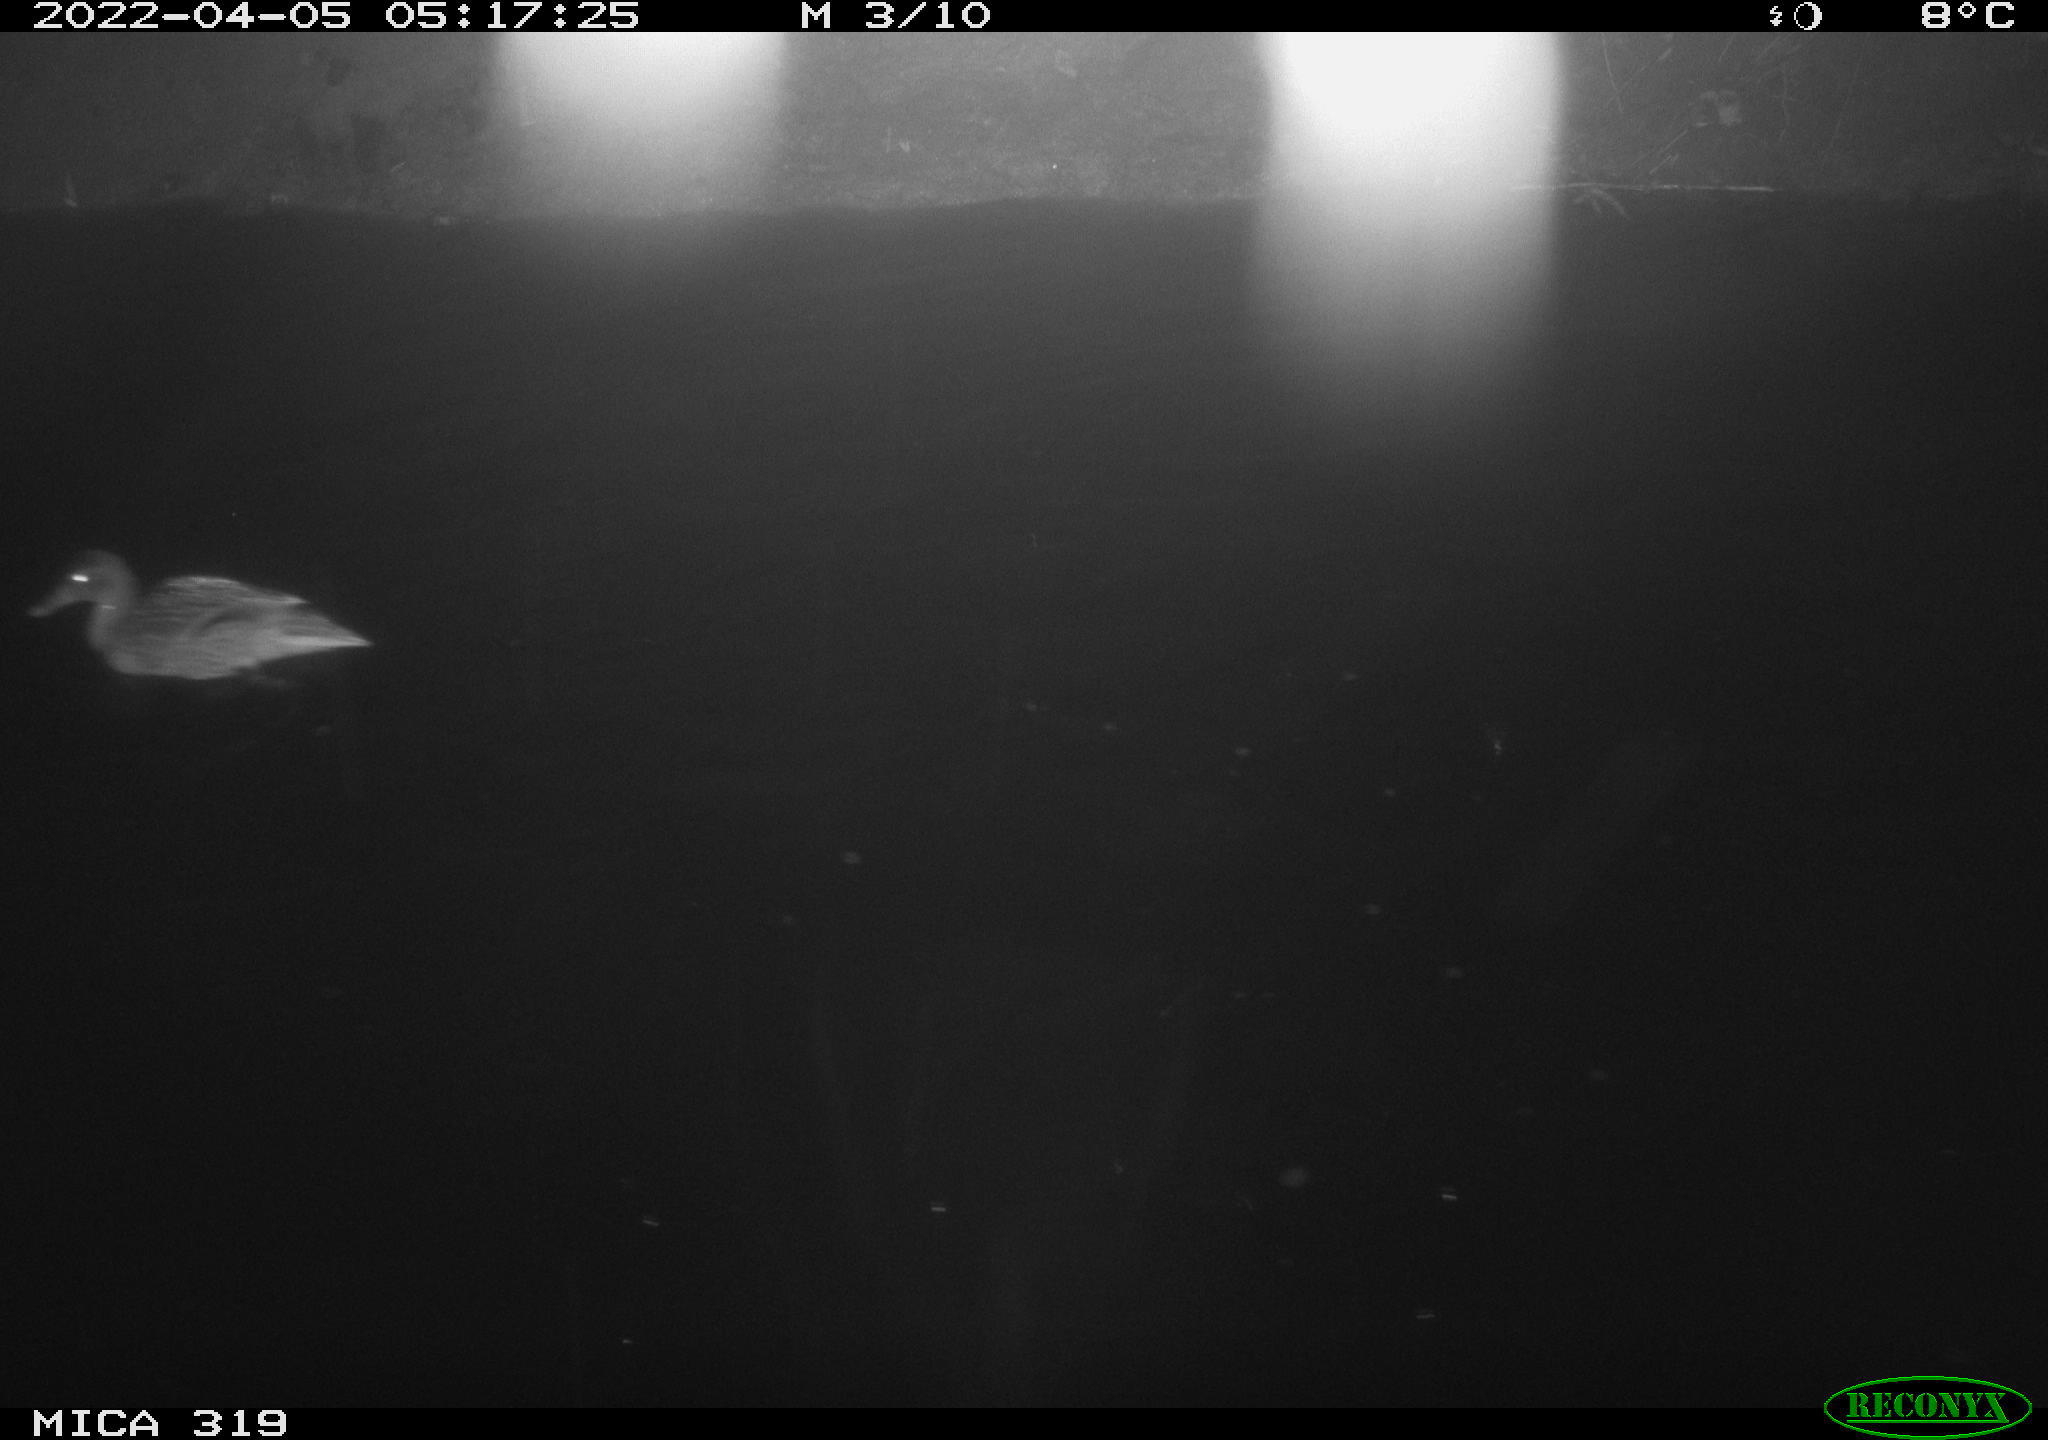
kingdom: Animalia
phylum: Chordata
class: Aves
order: Anseriformes
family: Anatidae
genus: Anas
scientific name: Anas platyrhynchos
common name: Mallard
